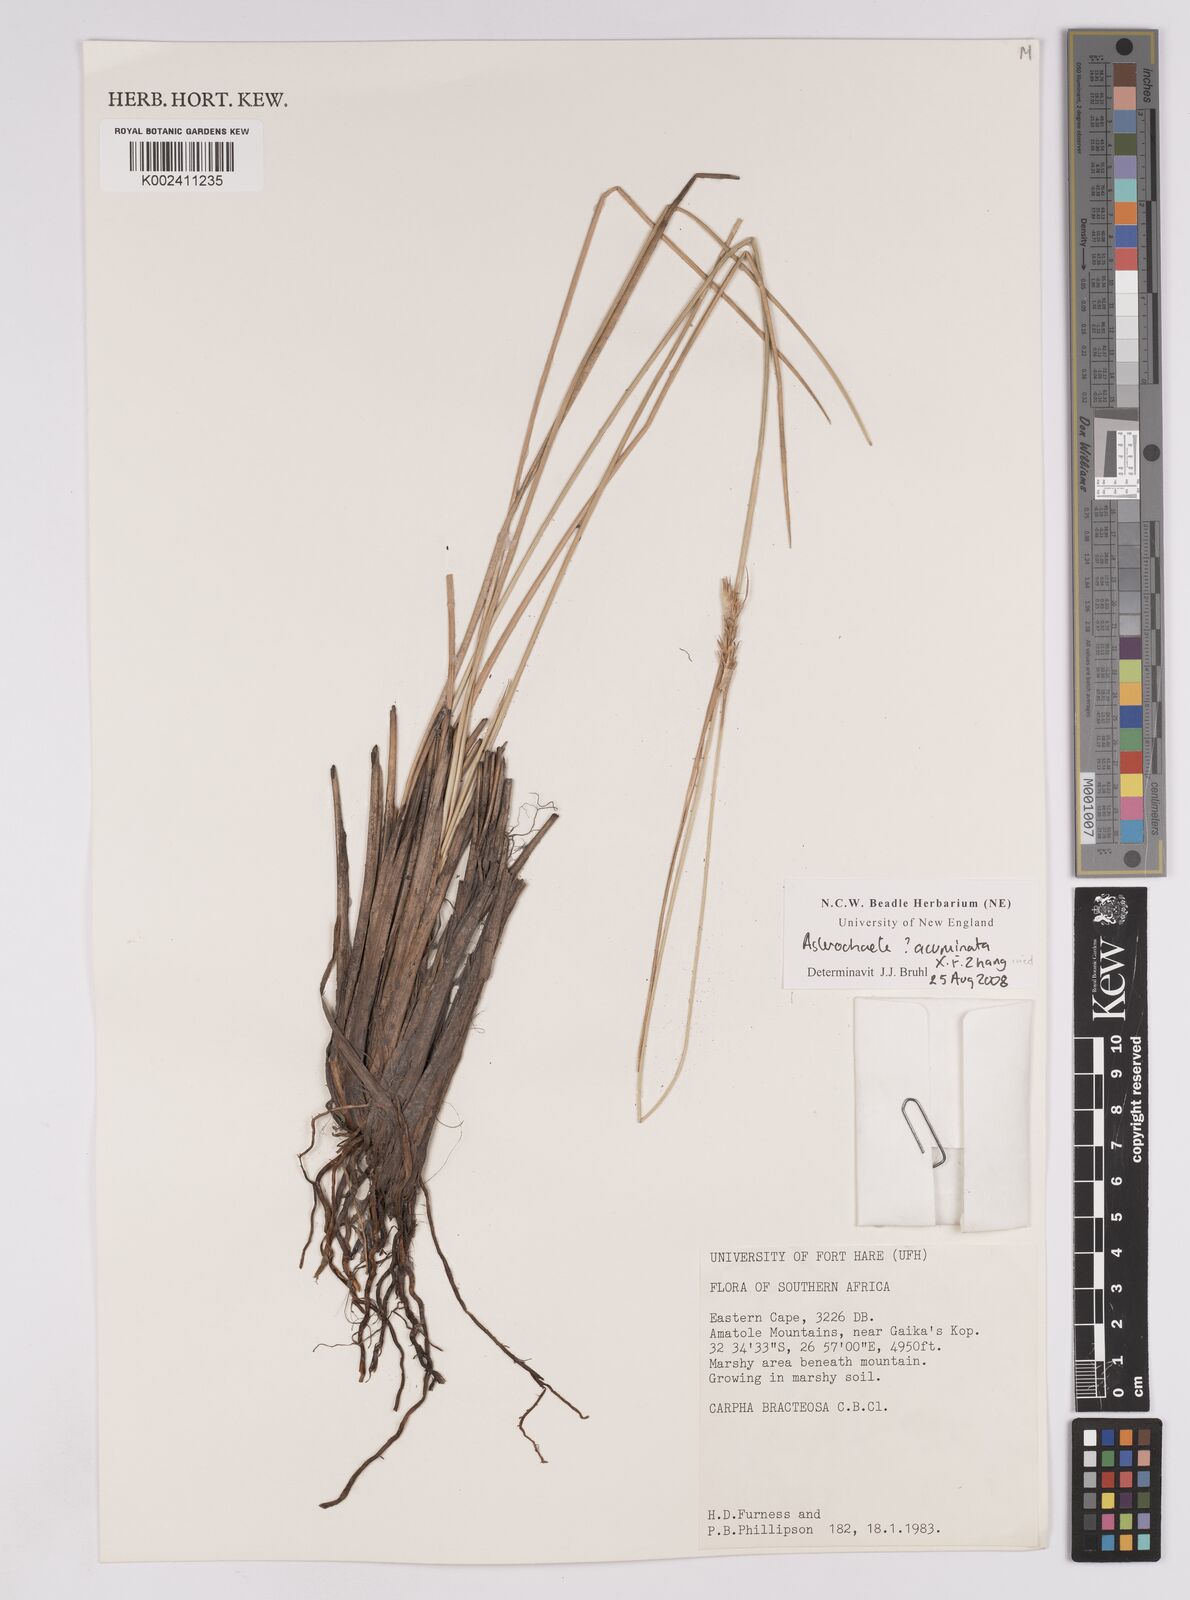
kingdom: Plantae
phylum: Tracheophyta
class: Liliopsida
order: Poales
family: Cyperaceae
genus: Carpha
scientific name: Carpha
